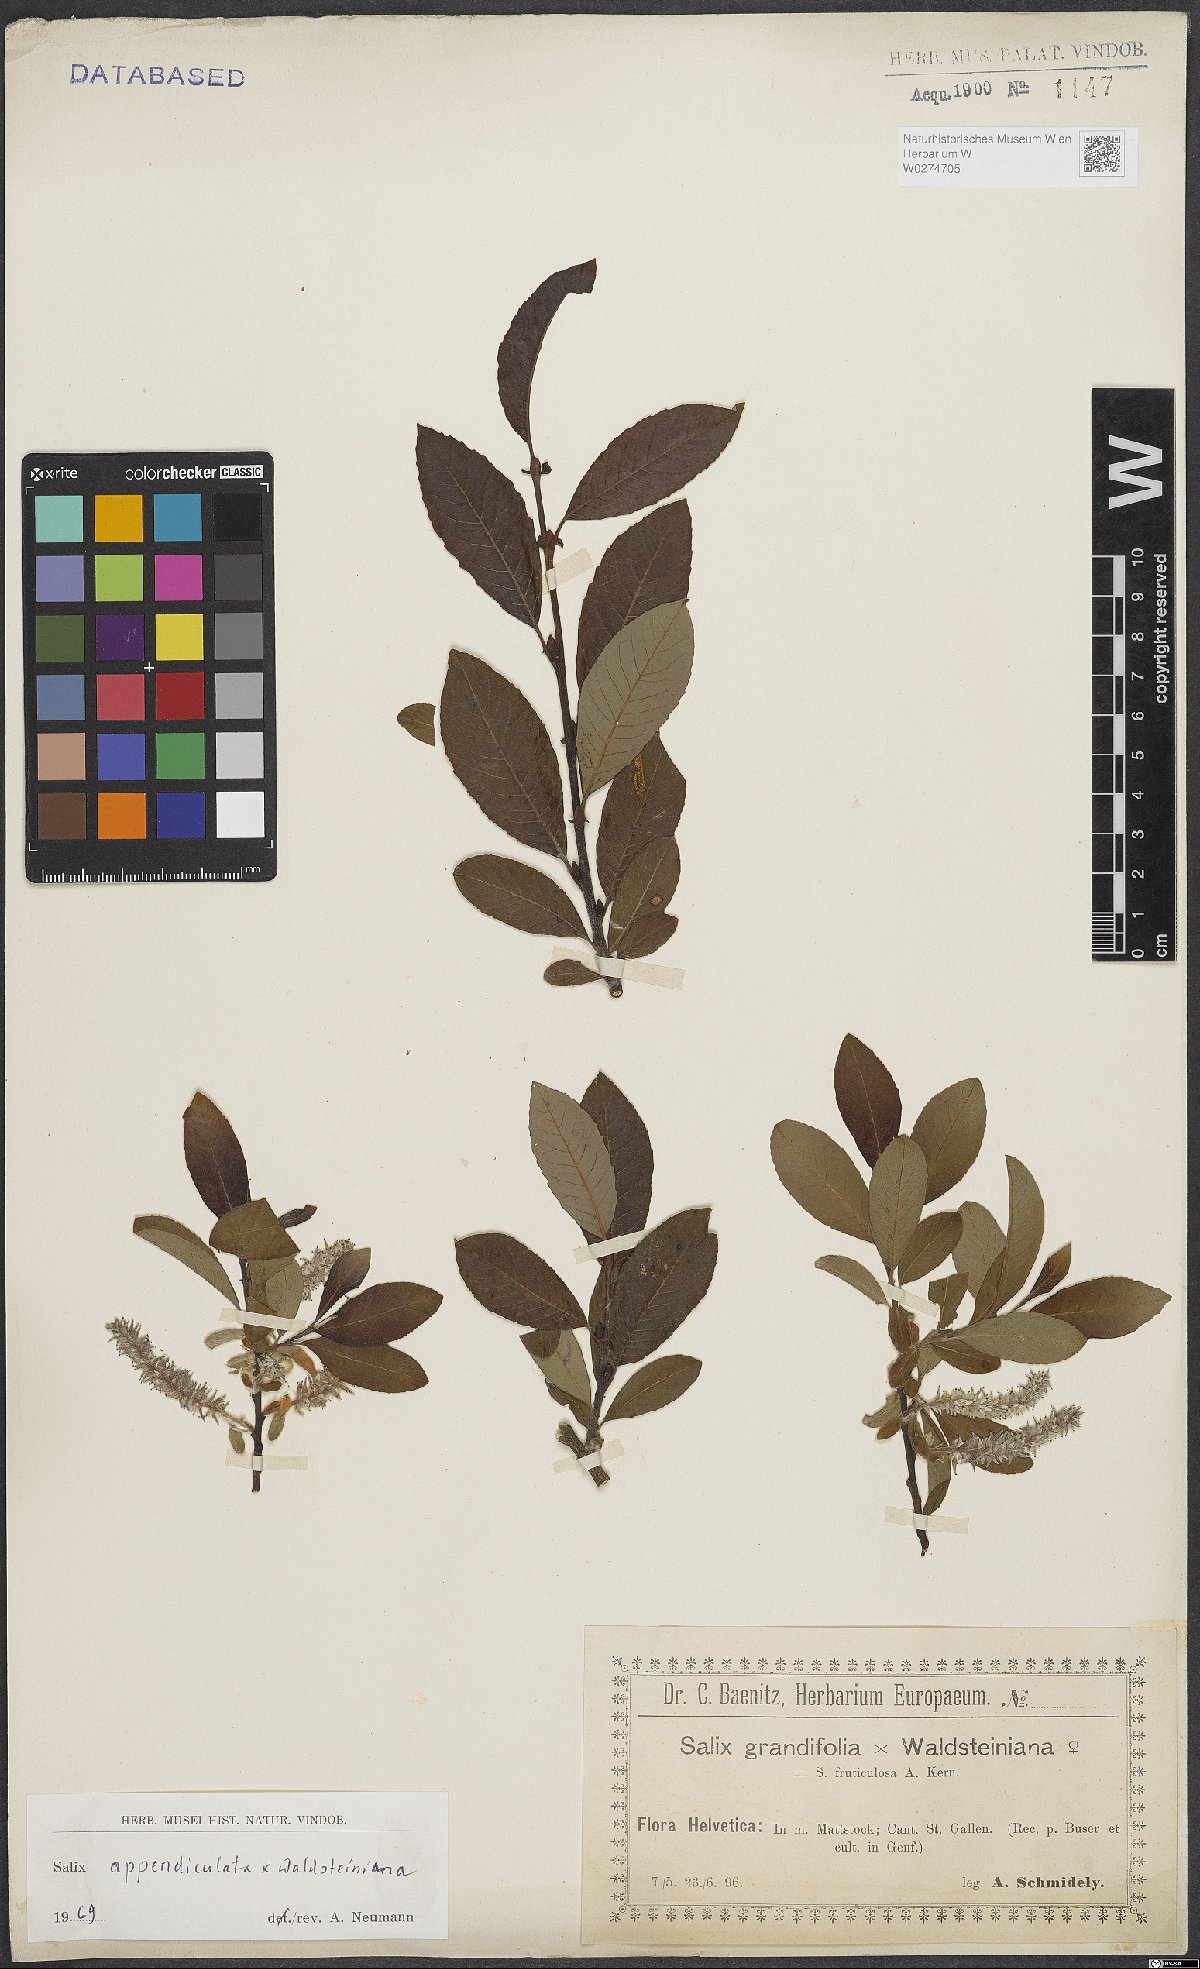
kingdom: Plantae
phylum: Tracheophyta
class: Magnoliopsida
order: Malpighiales
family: Salicaceae
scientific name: Salicaceae
